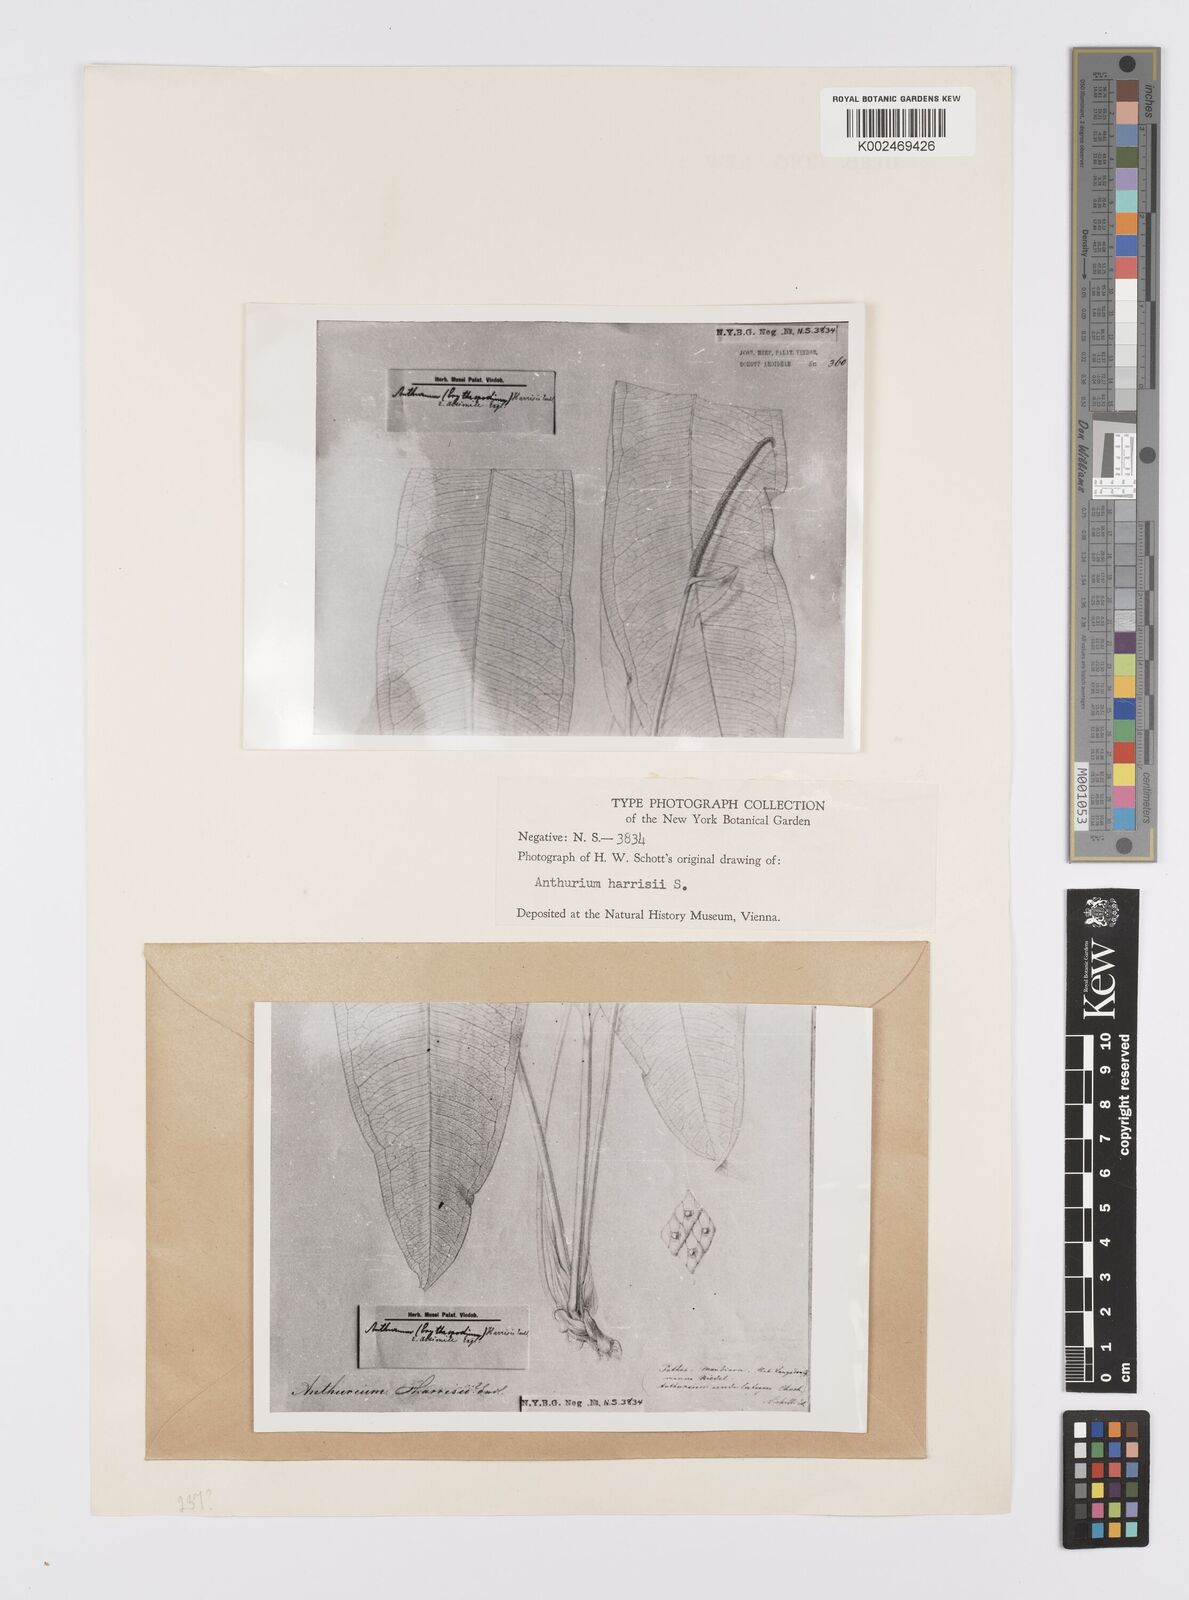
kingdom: Plantae
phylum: Tracheophyta
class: Liliopsida
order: Alismatales
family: Araceae
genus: Anthurium
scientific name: Anthurium harrisii
